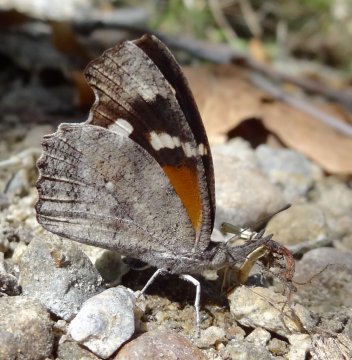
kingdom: Animalia
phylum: Arthropoda
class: Insecta
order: Lepidoptera
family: Nymphalidae
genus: Libytheana
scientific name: Libytheana carinenta
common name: American Snout
